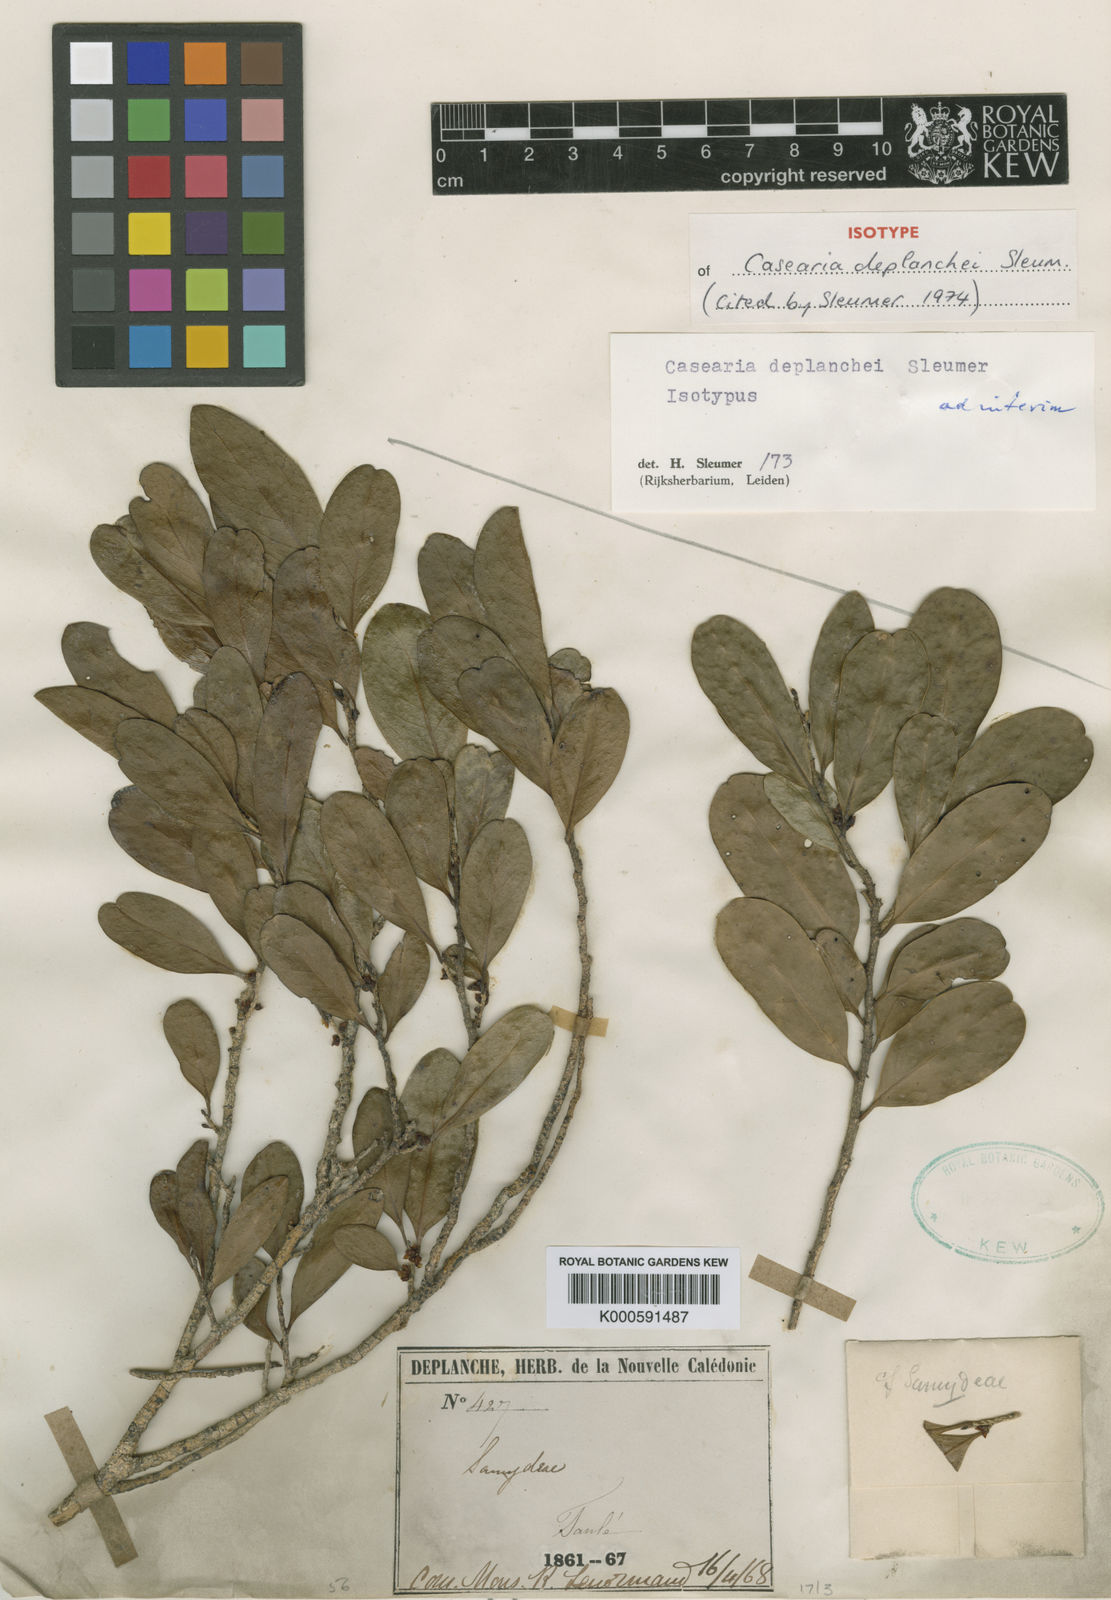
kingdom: Plantae
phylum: Tracheophyta
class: Magnoliopsida
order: Malpighiales
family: Salicaceae
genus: Casearia
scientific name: Casearia deplanchei
